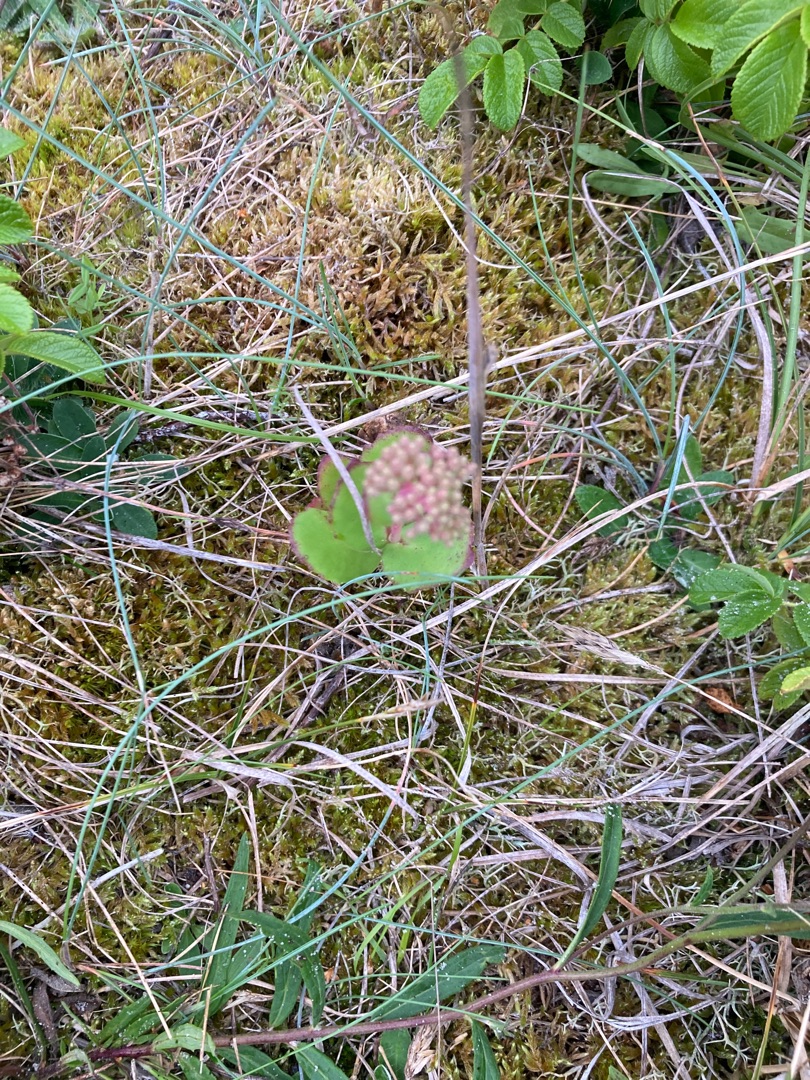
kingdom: Plantae
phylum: Tracheophyta
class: Magnoliopsida
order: Saxifragales
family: Crassulaceae
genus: Hylotelephium
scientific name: Hylotelephium maximum
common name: Almindelig sankthansurt
